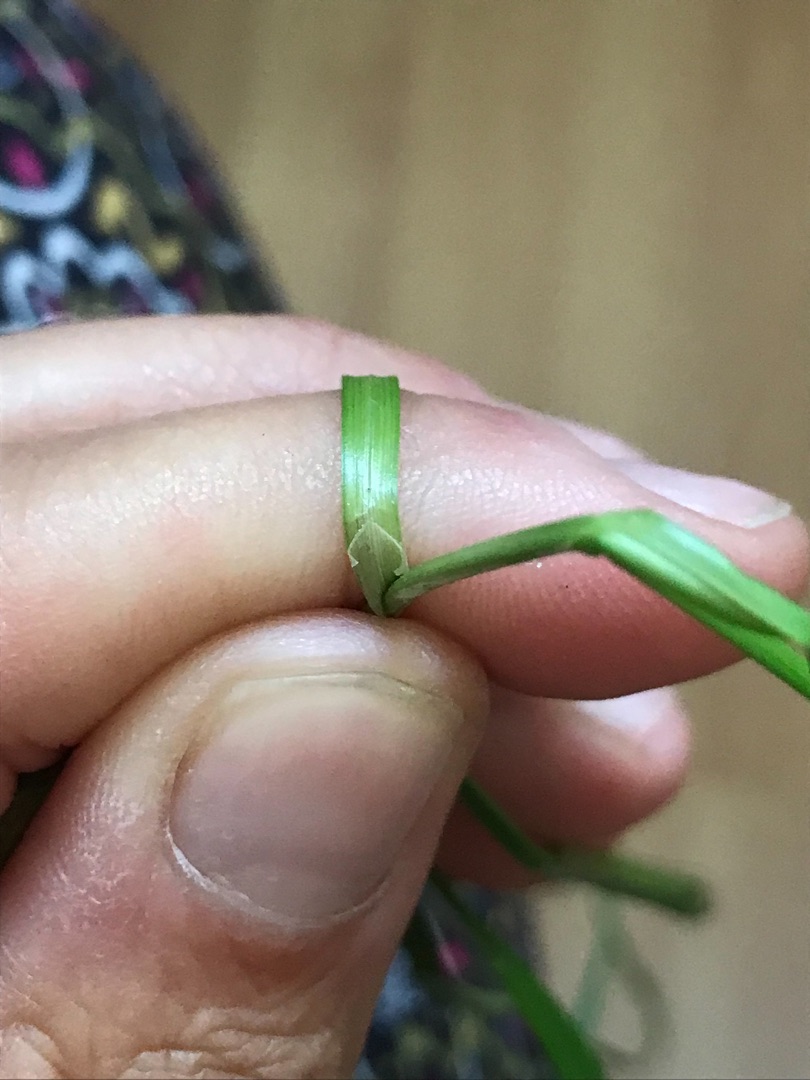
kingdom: Plantae
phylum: Tracheophyta
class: Liliopsida
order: Poales
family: Cyperaceae
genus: Carex
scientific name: Carex divulsa
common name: Mellembrudt star
